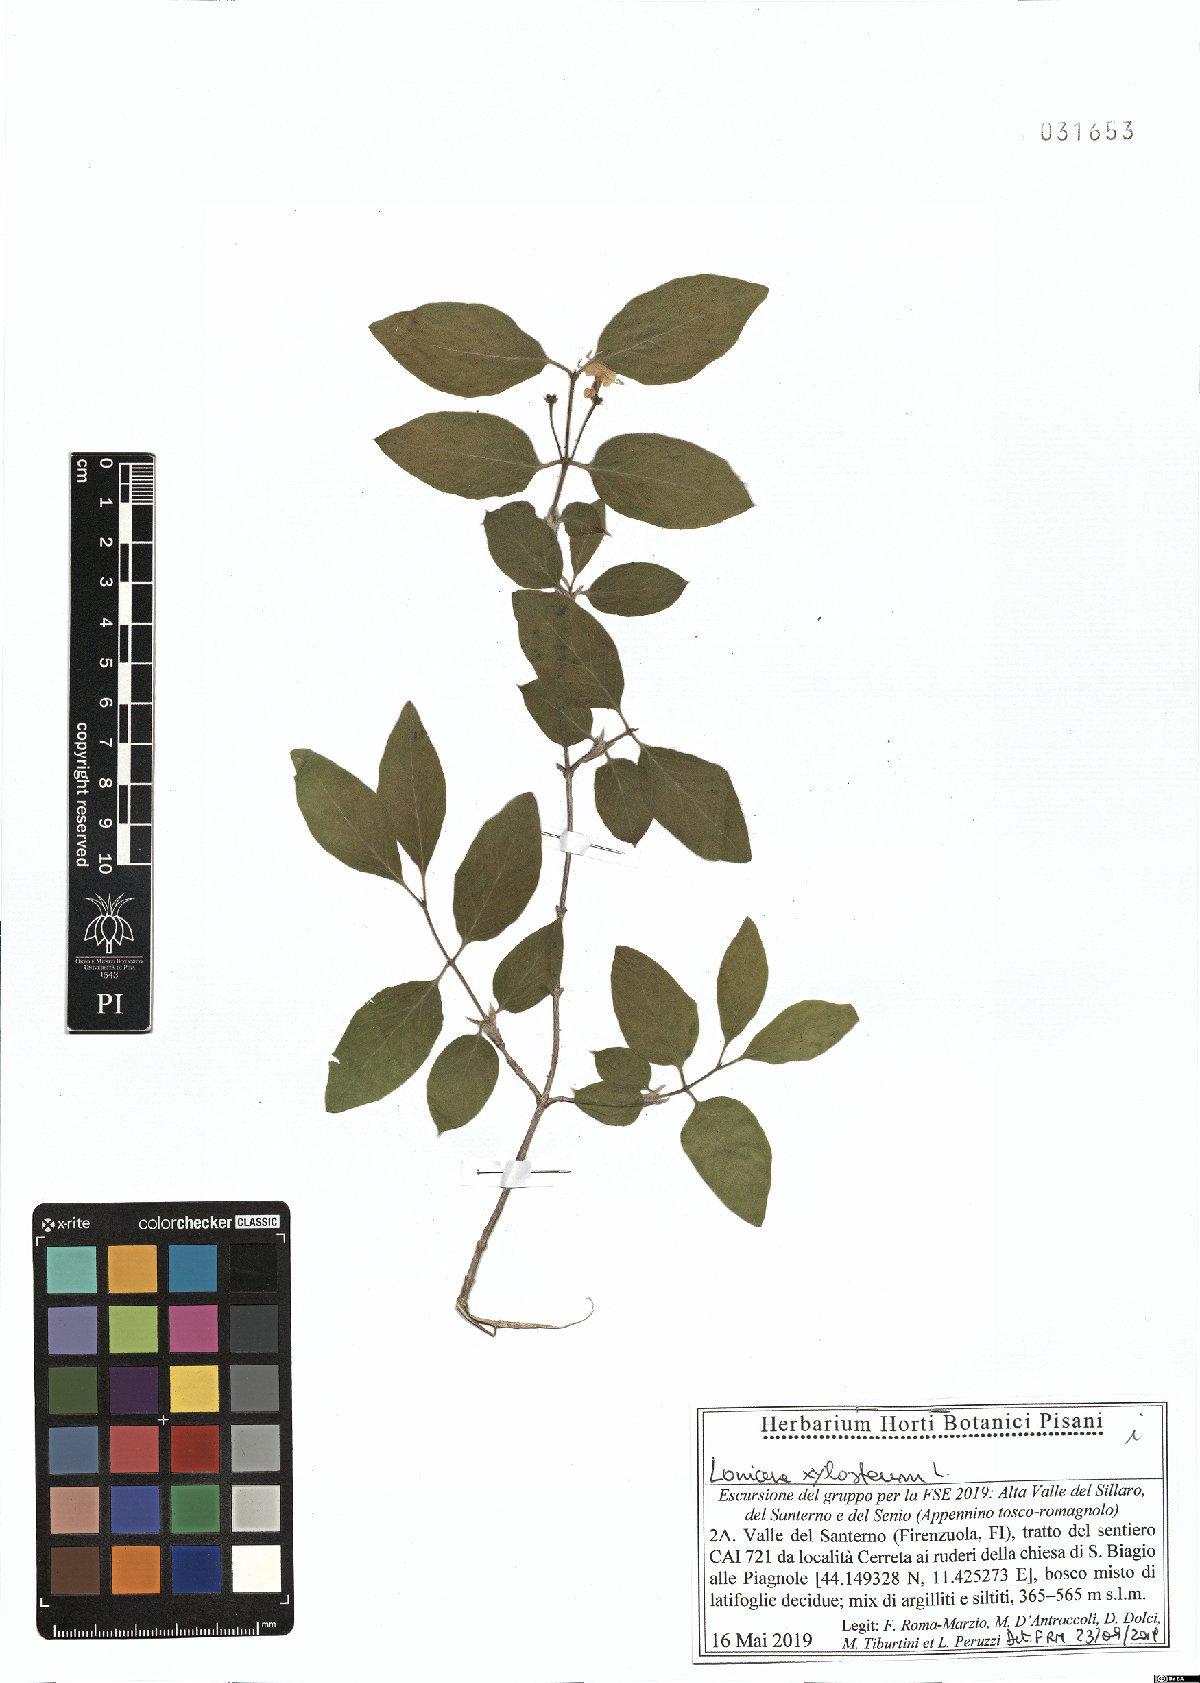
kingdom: Plantae
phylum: Tracheophyta
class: Magnoliopsida
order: Dipsacales
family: Caprifoliaceae
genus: Lonicera
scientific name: Lonicera xylosteum
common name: Fly honeysuckle
